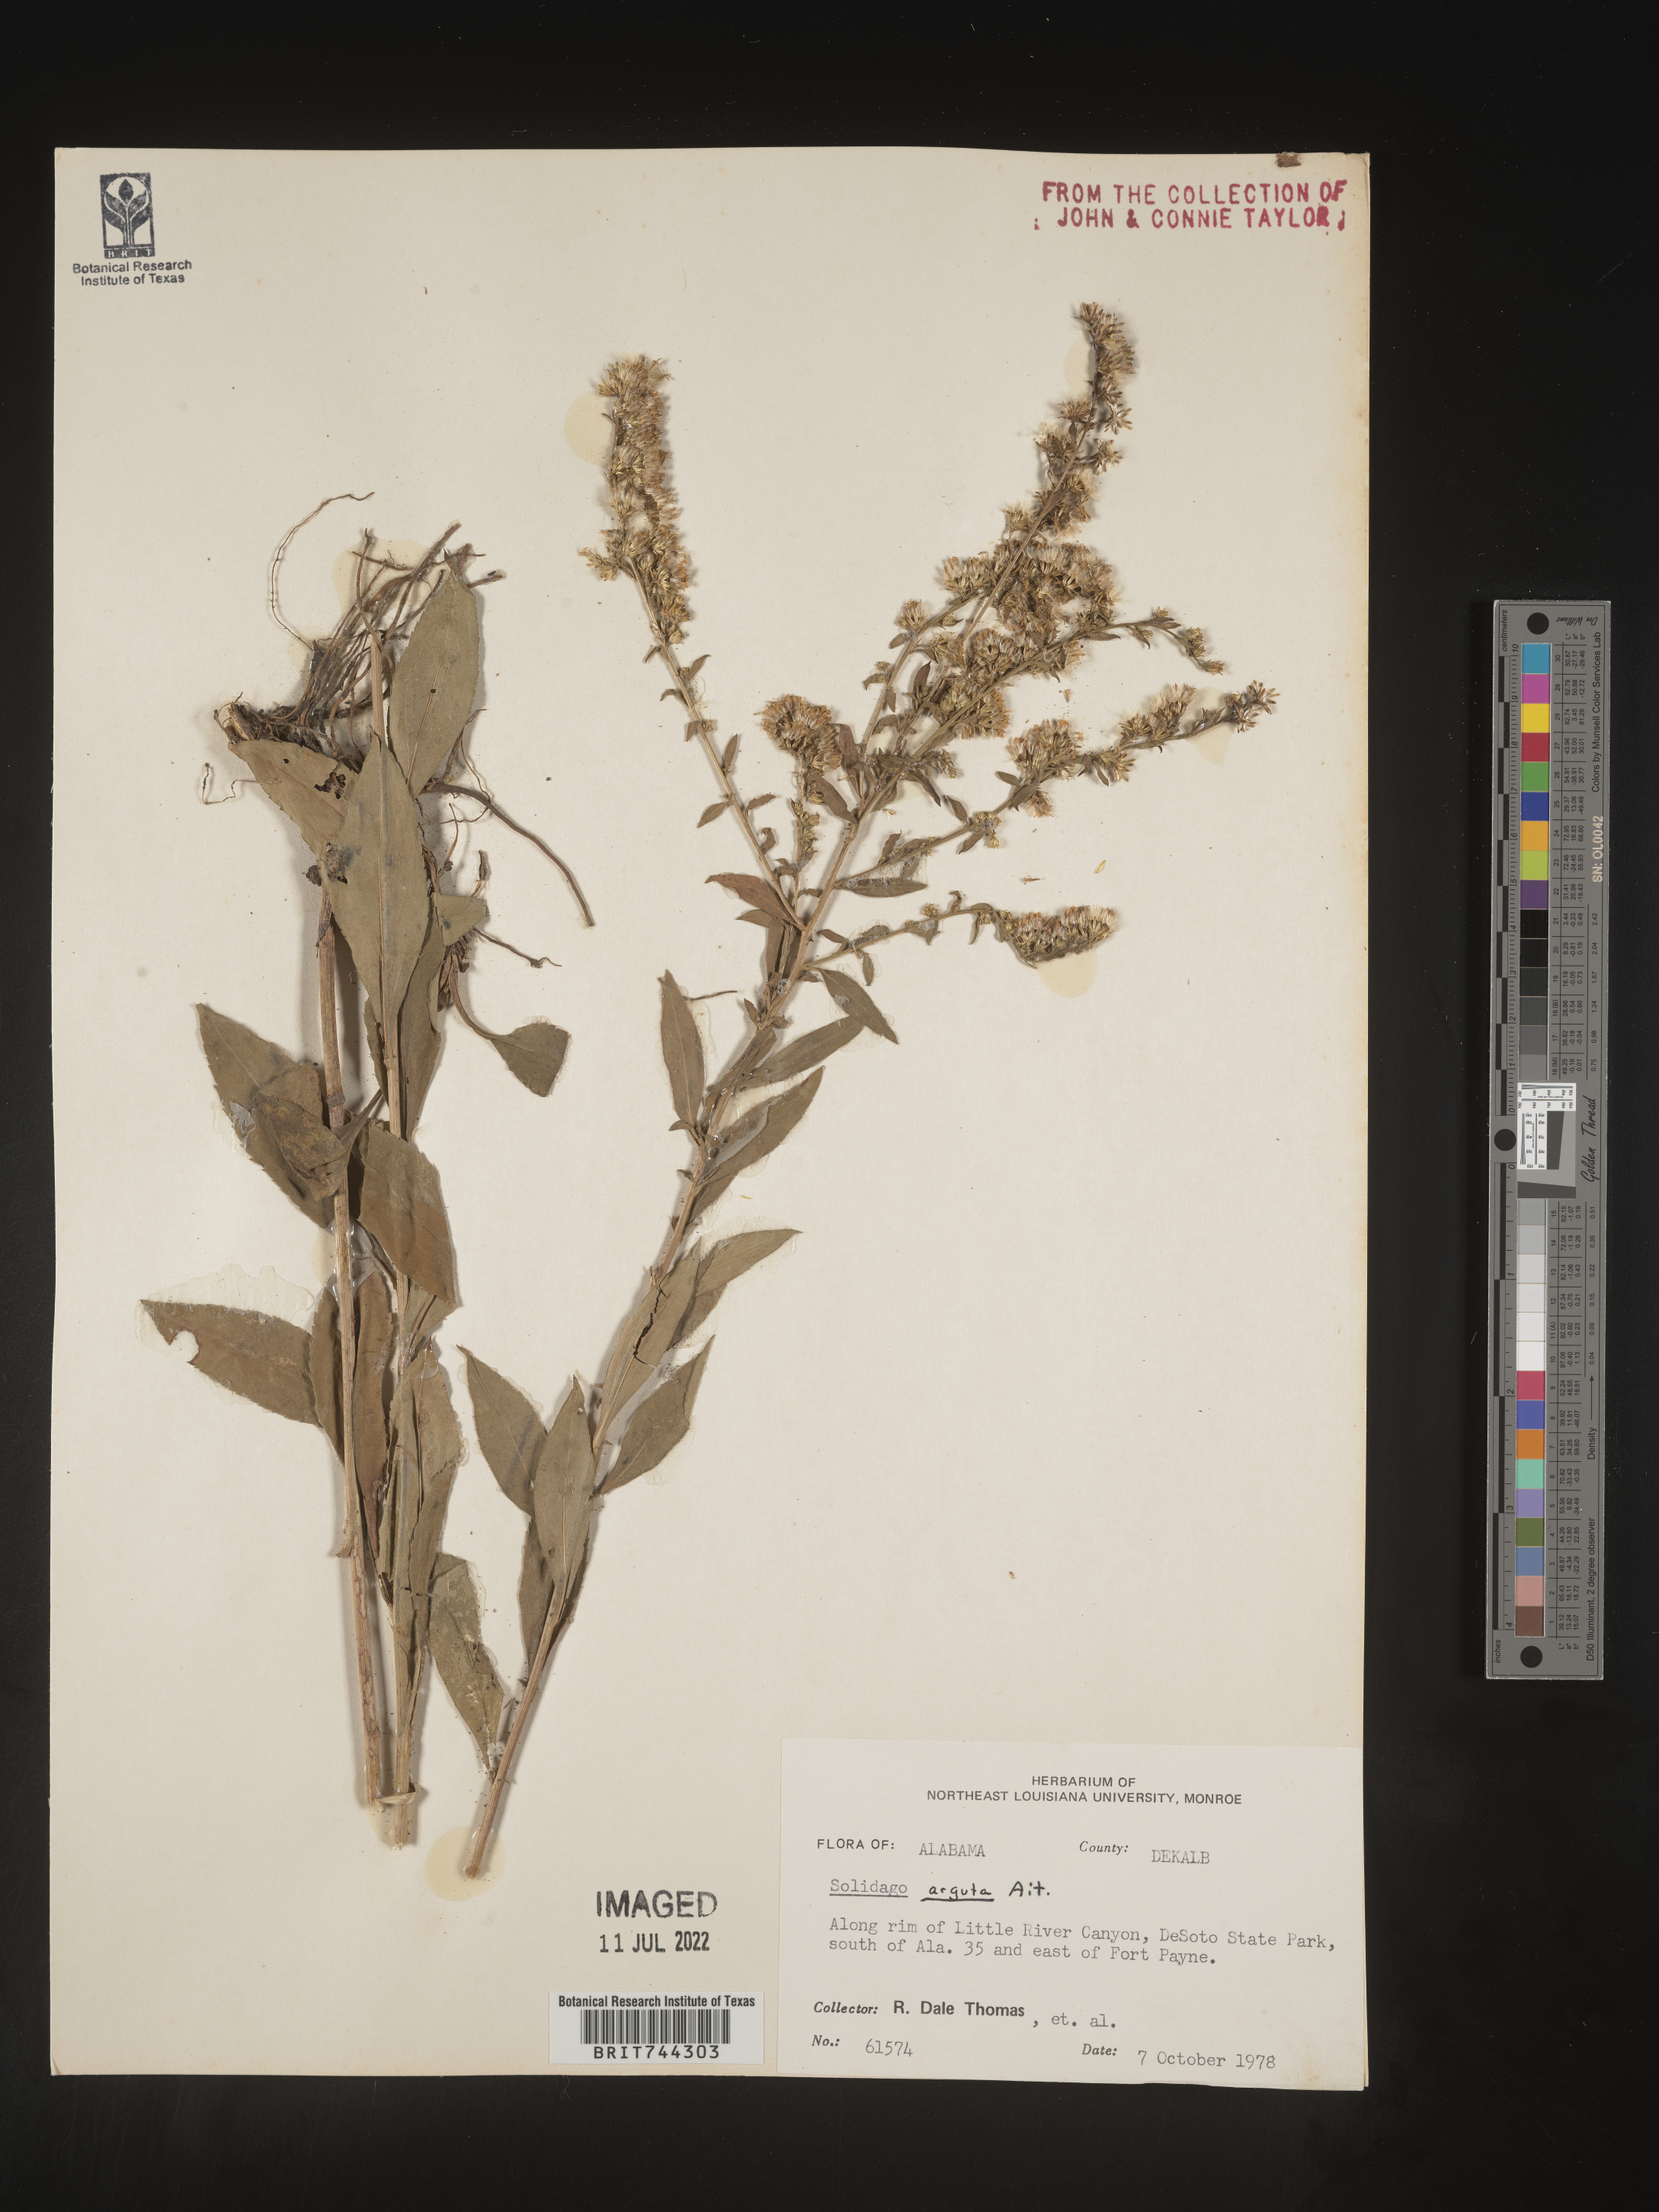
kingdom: Plantae
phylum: Tracheophyta
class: Magnoliopsida
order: Asterales
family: Asteraceae
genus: Solidago
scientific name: Solidago arguta
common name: Atlantic goldenrod
